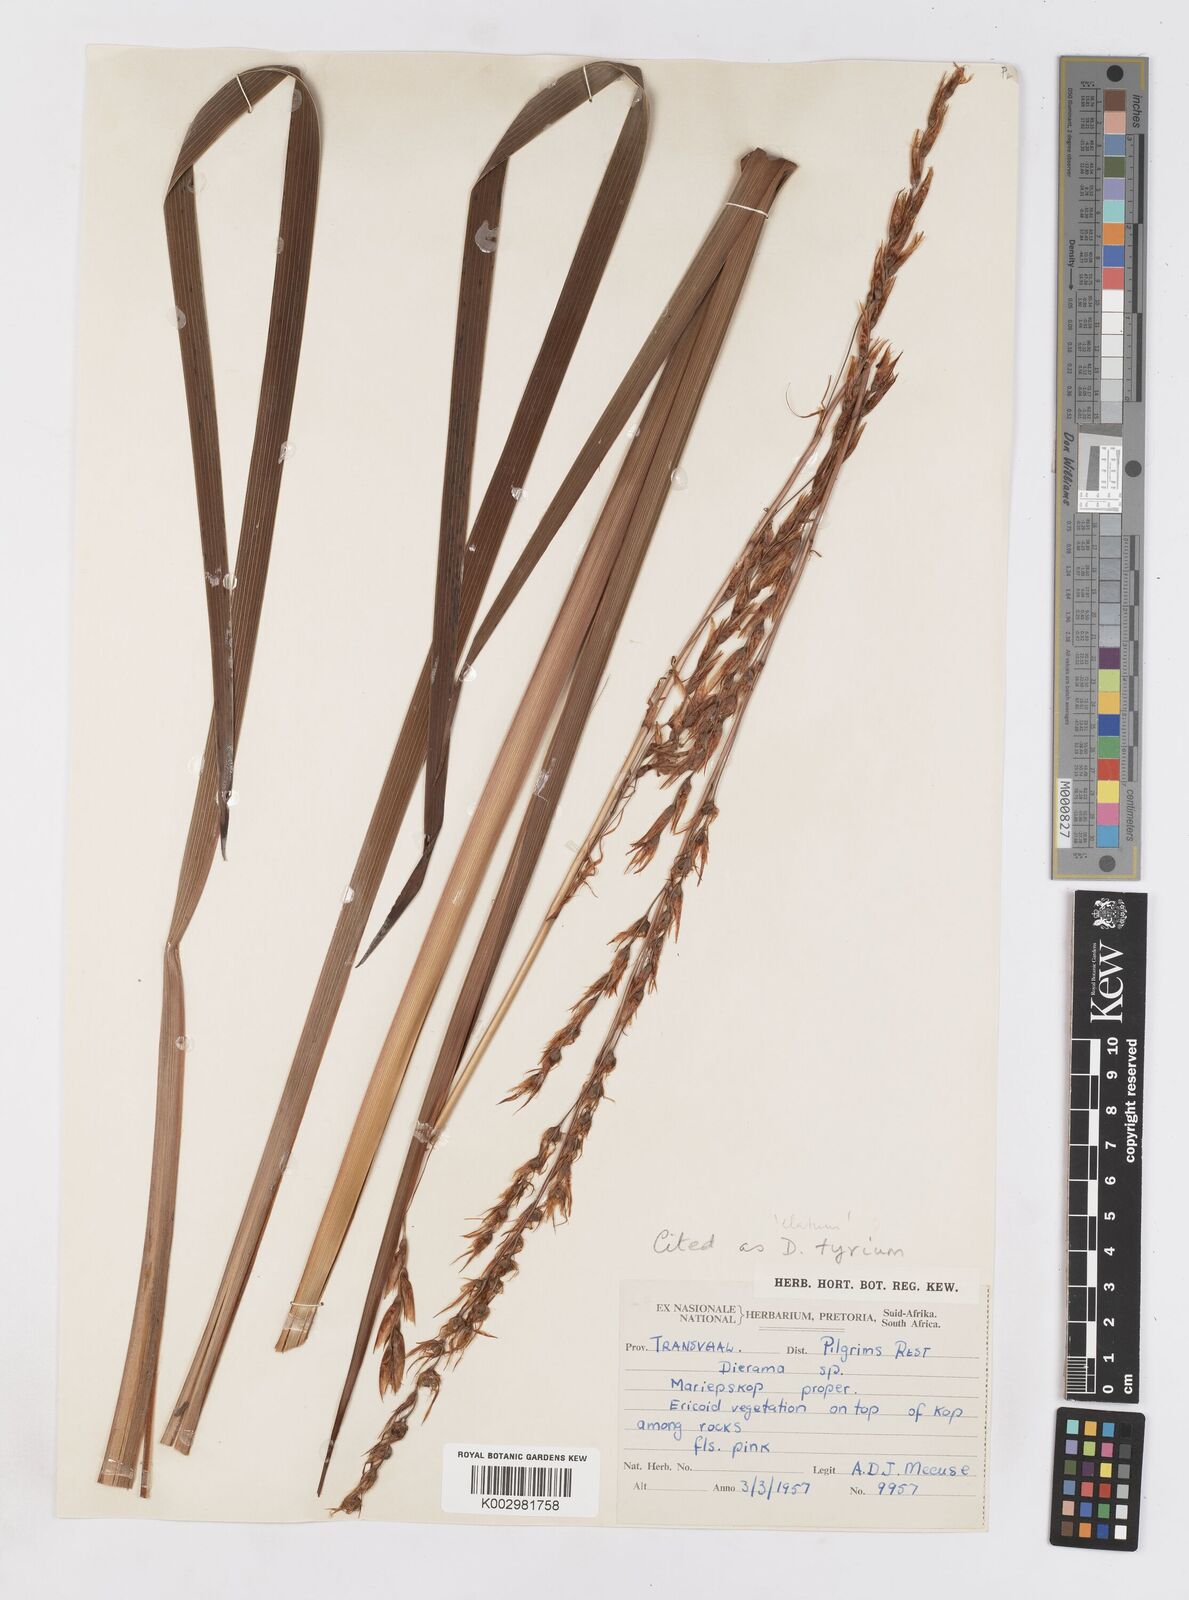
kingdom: Plantae
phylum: Tracheophyta
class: Liliopsida
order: Asparagales
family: Iridaceae
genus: Dierama
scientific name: Dierama tyrium
